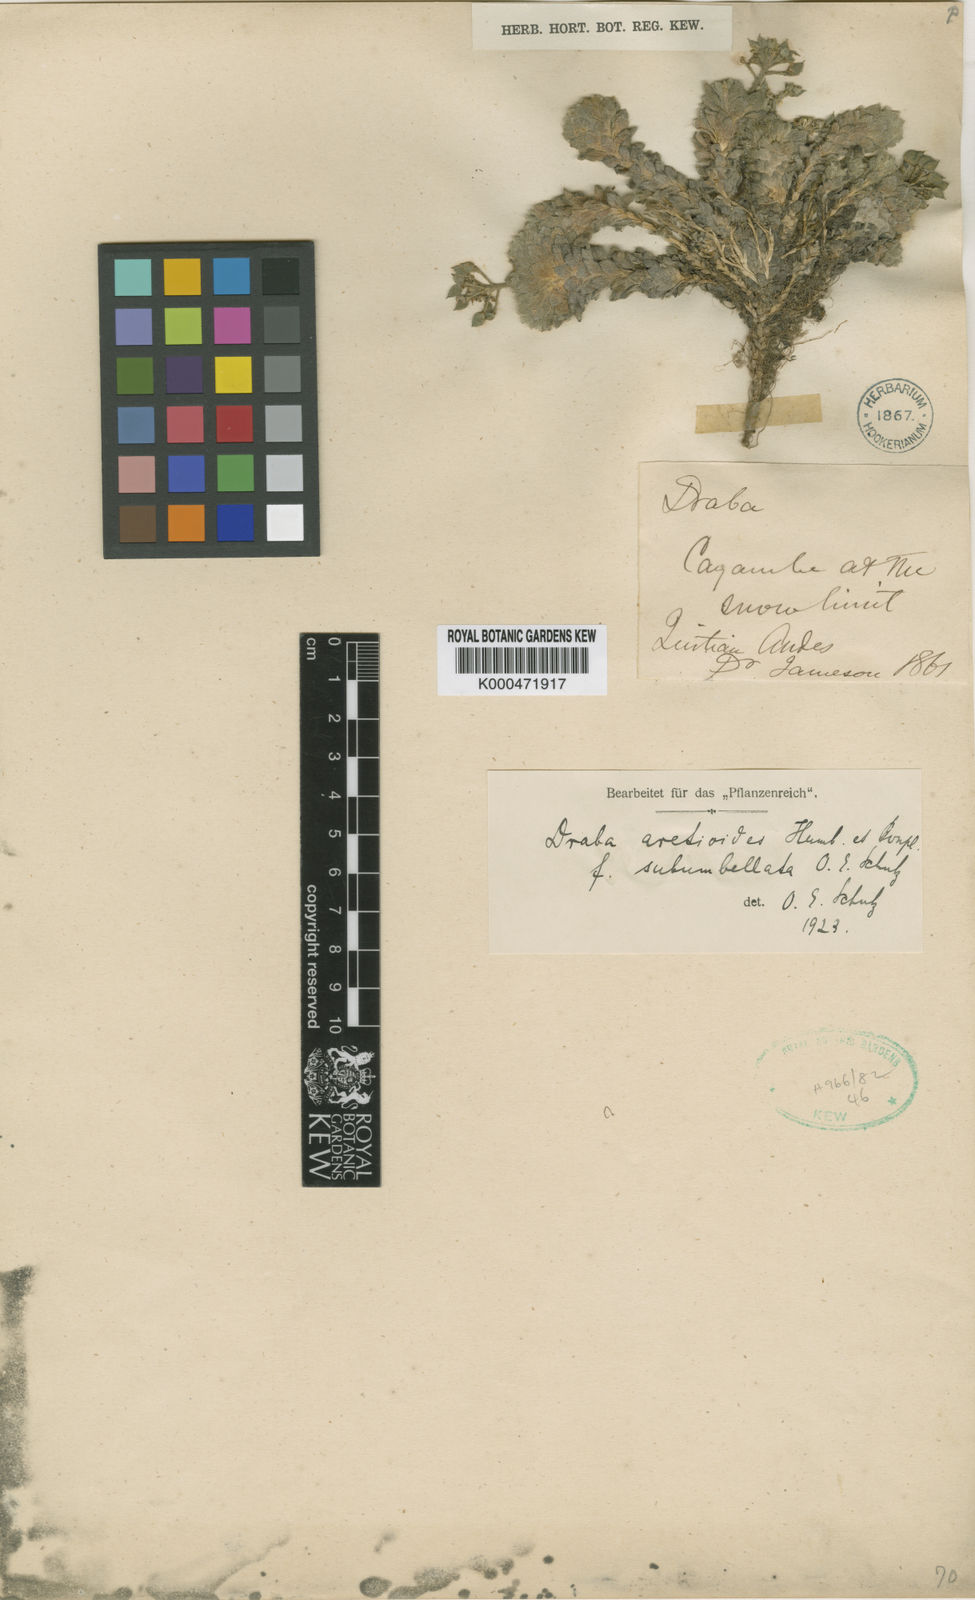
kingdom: Plantae
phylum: Tracheophyta
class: Magnoliopsida
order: Brassicales
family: Brassicaceae
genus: Draba
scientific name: Draba aretioides
